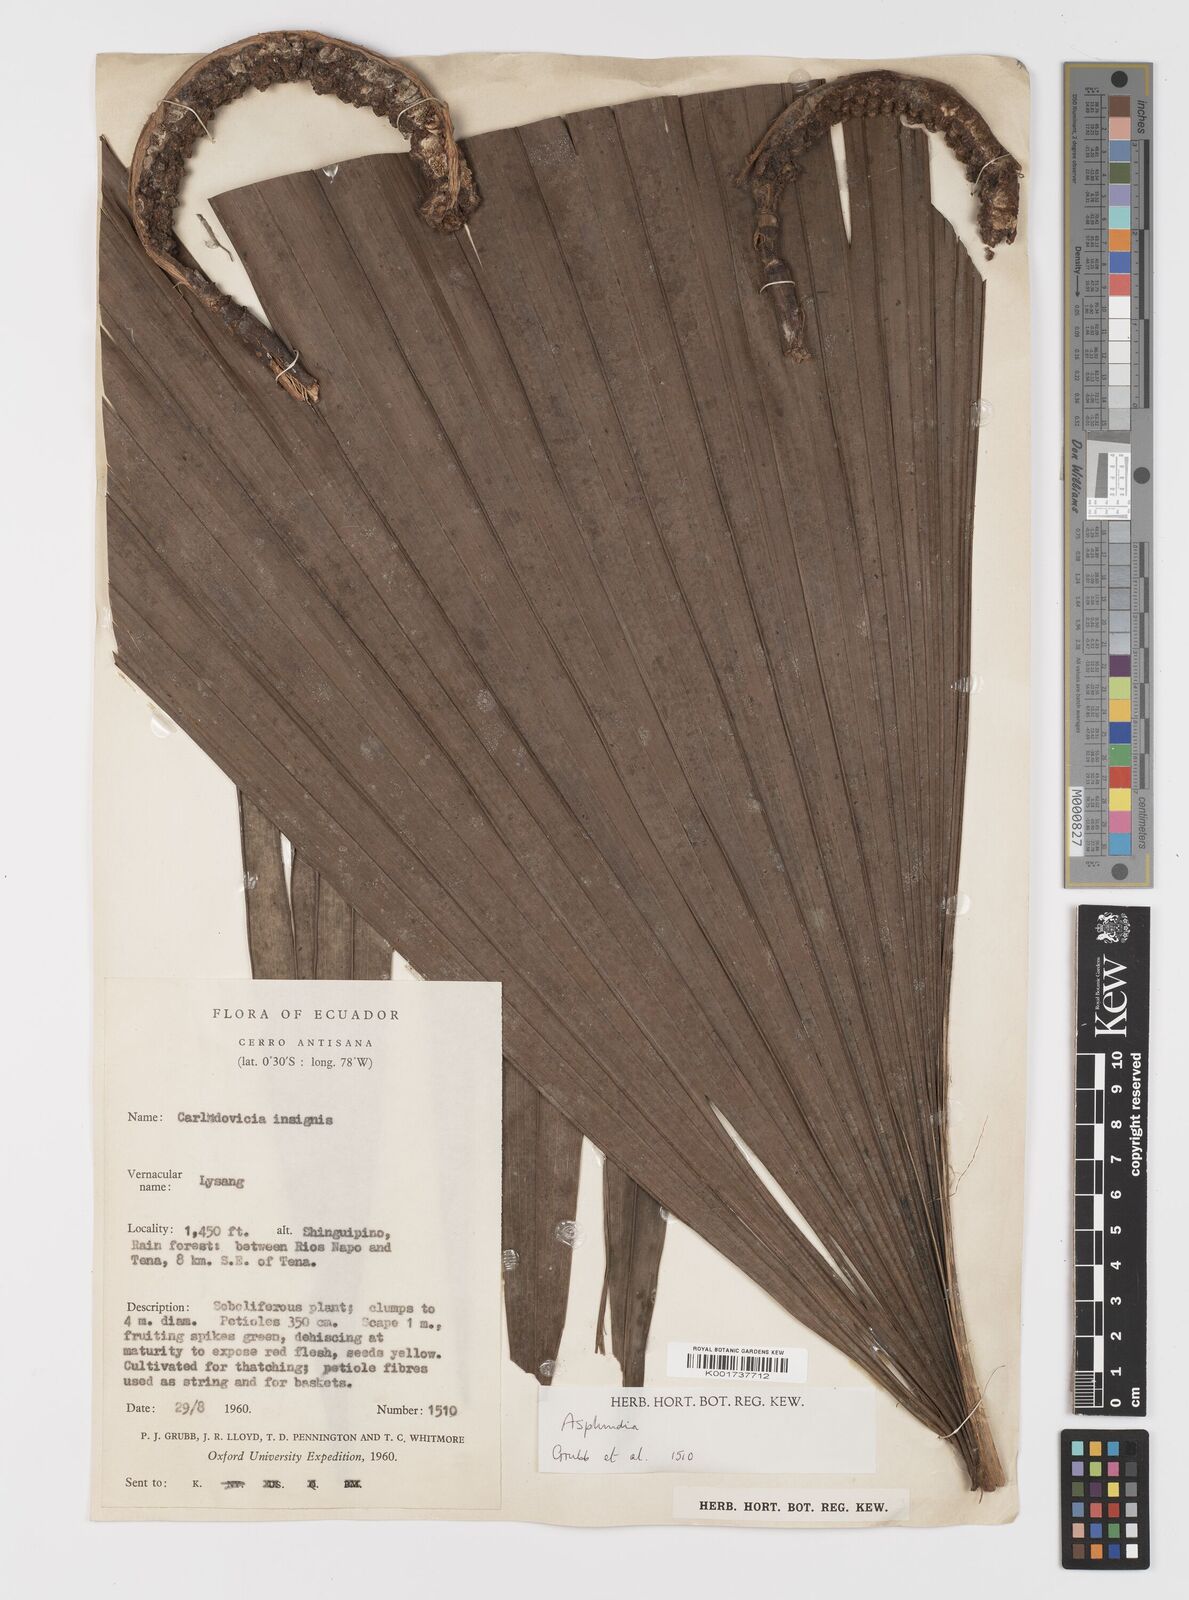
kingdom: Plantae
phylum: Tracheophyta
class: Liliopsida
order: Pandanales
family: Cyclanthaceae
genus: Asplundia
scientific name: Asplundia
